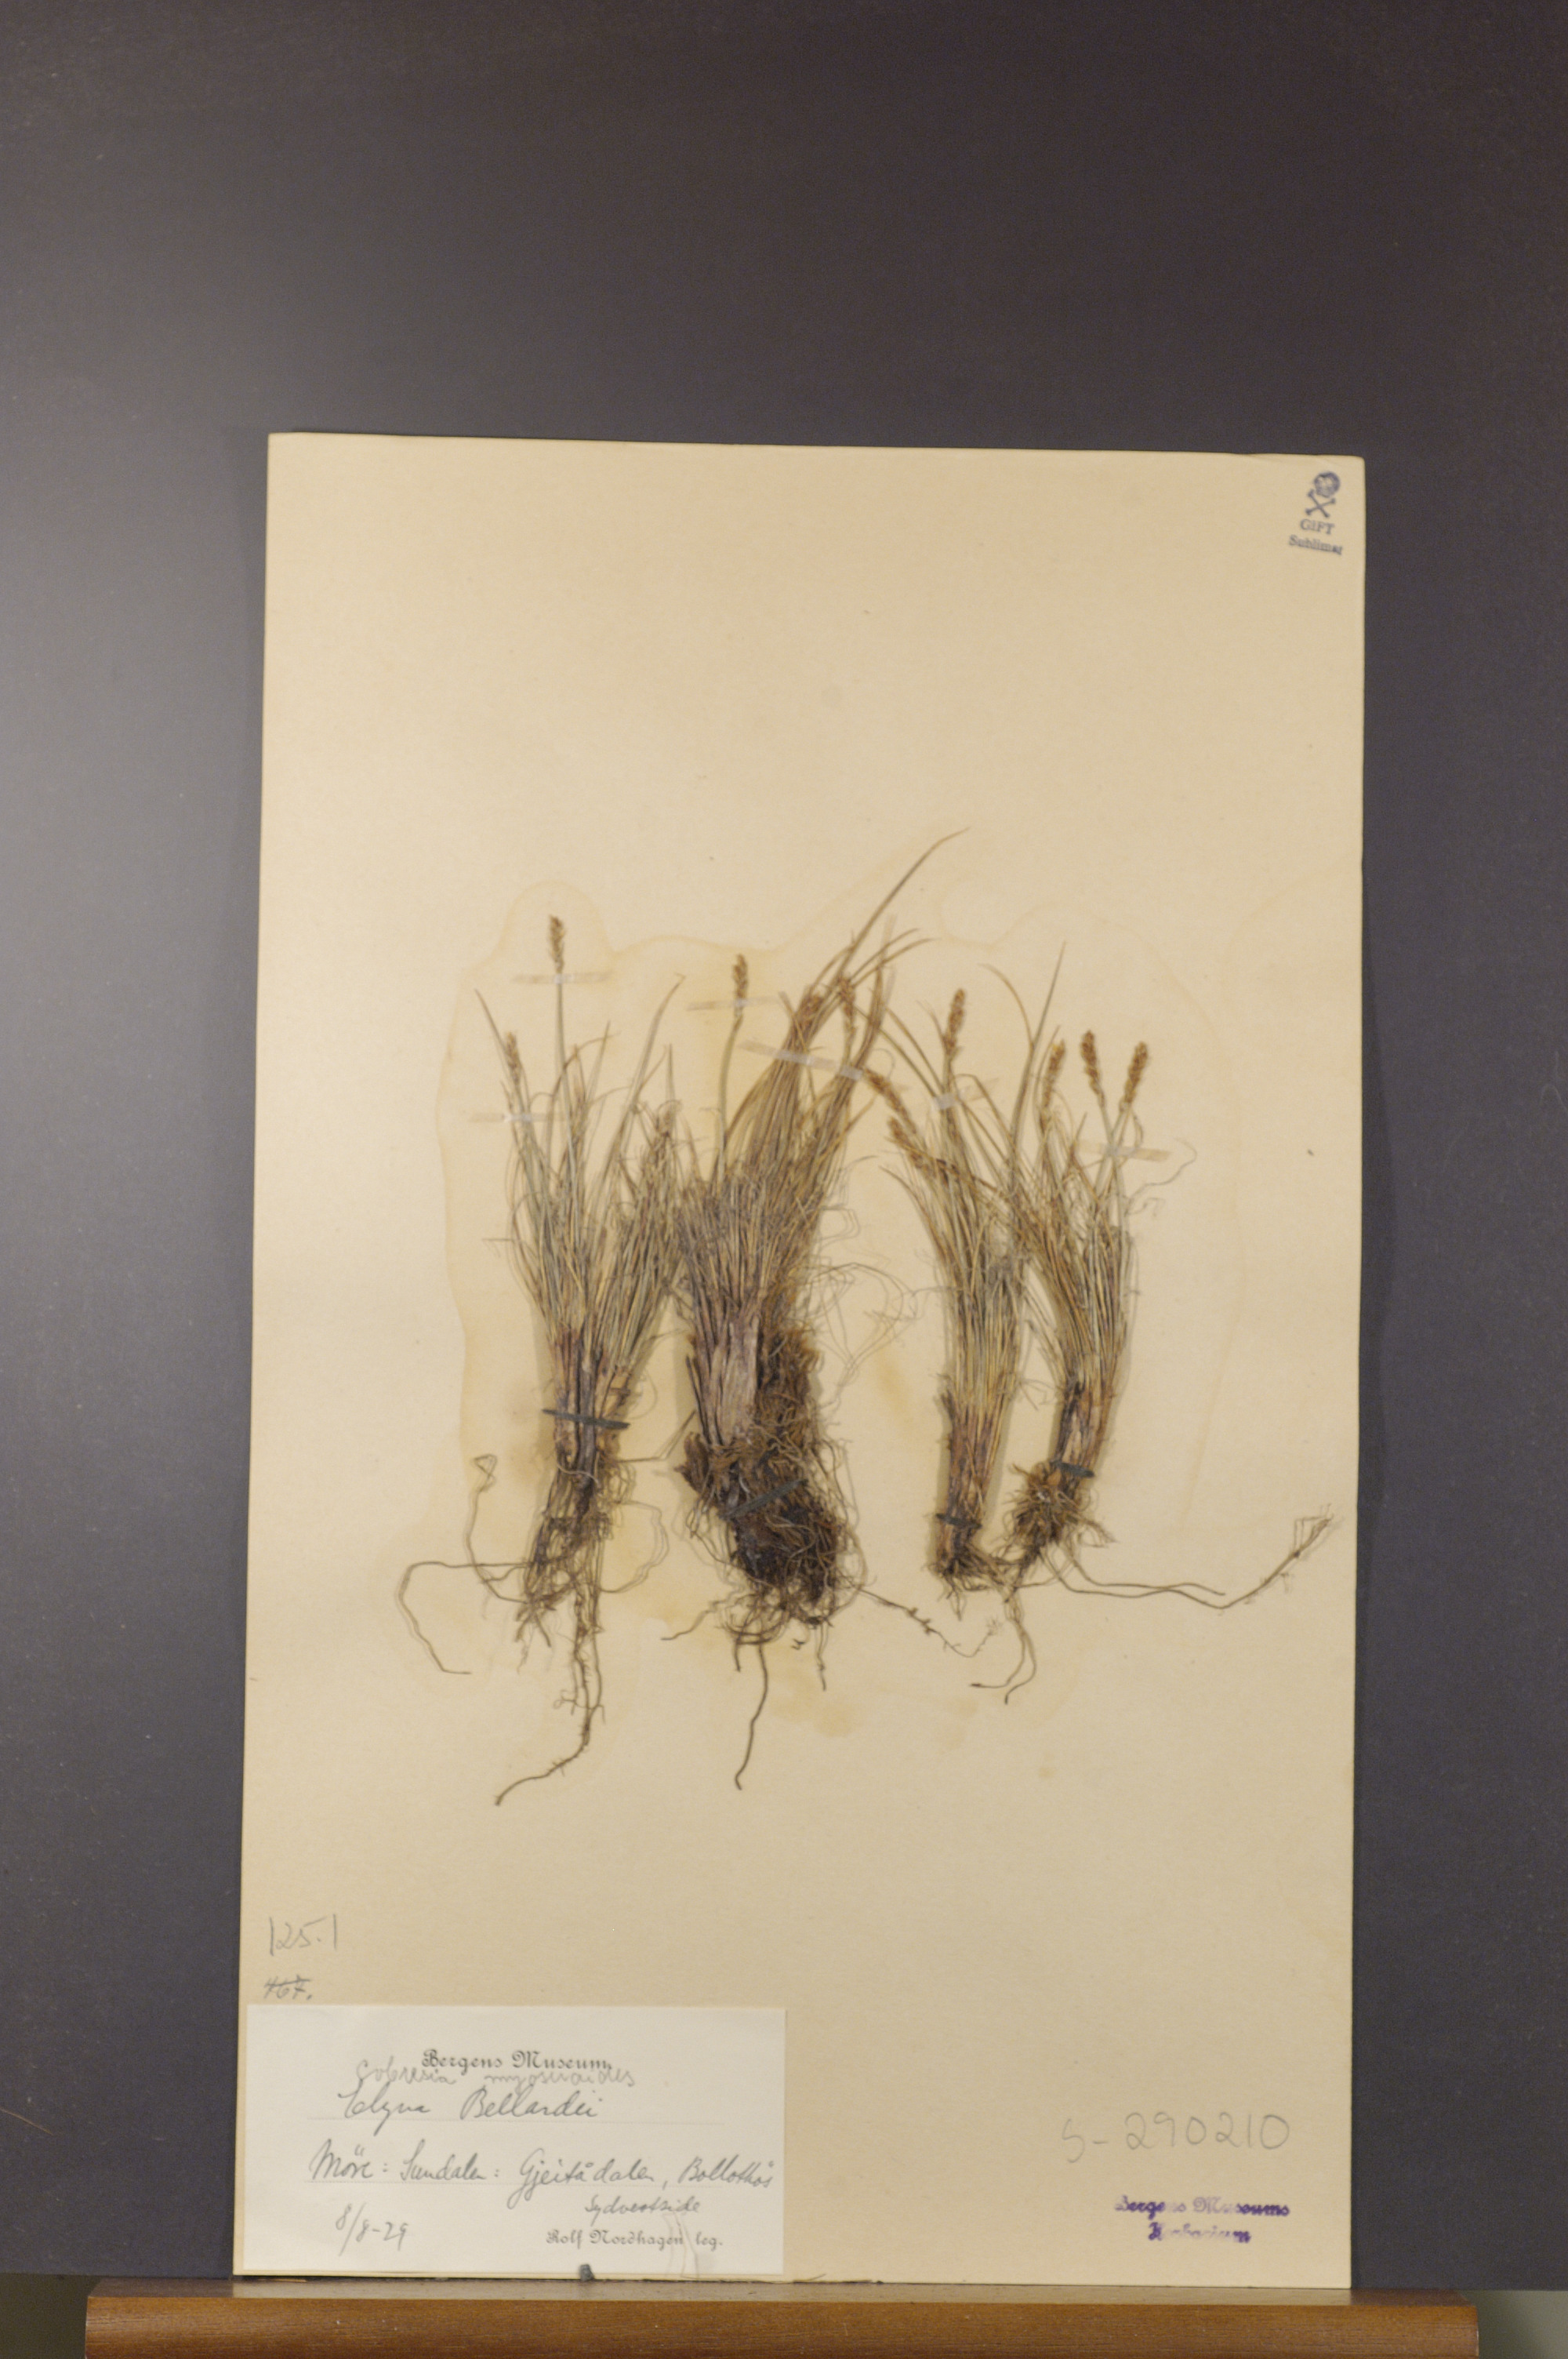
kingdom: Plantae
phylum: Tracheophyta
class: Liliopsida
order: Poales
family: Cyperaceae
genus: Carex
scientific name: Carex myosuroides
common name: Bellard's bog sedge
